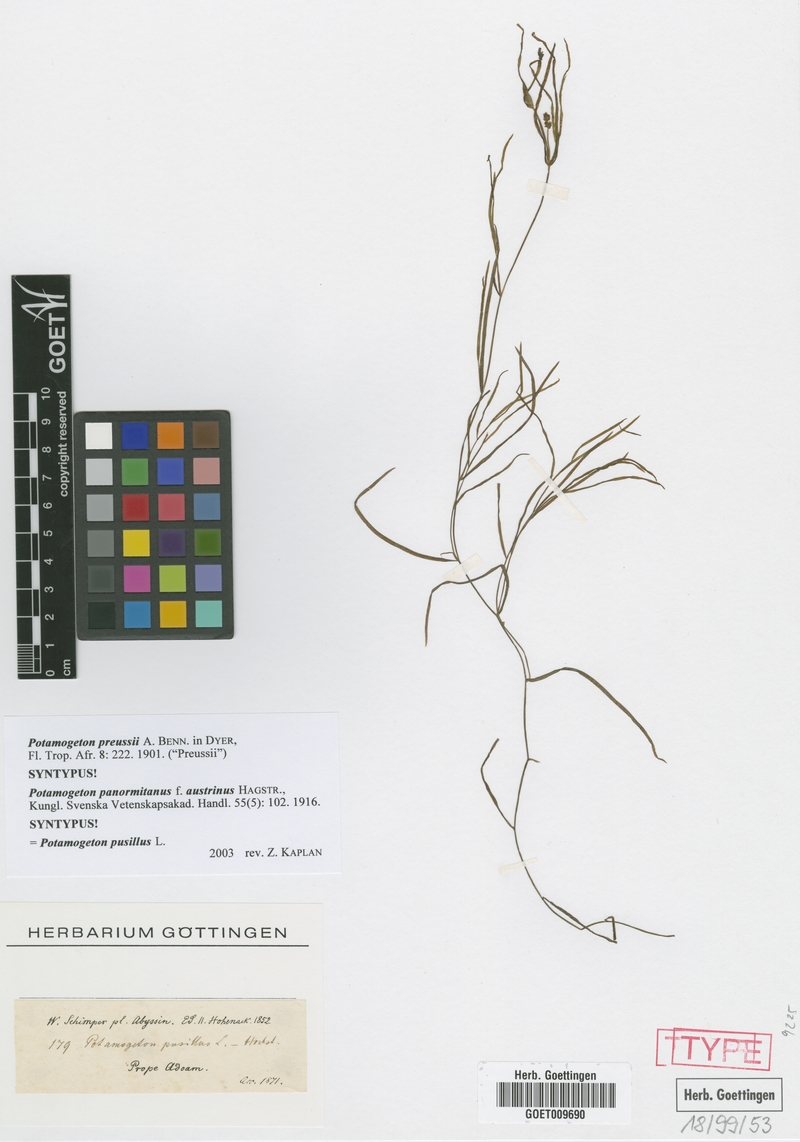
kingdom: Plantae
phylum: Tracheophyta
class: Liliopsida
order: Alismatales
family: Potamogetonaceae
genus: Potamogeton
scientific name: Potamogeton pusillus
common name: Lesser pondweed
